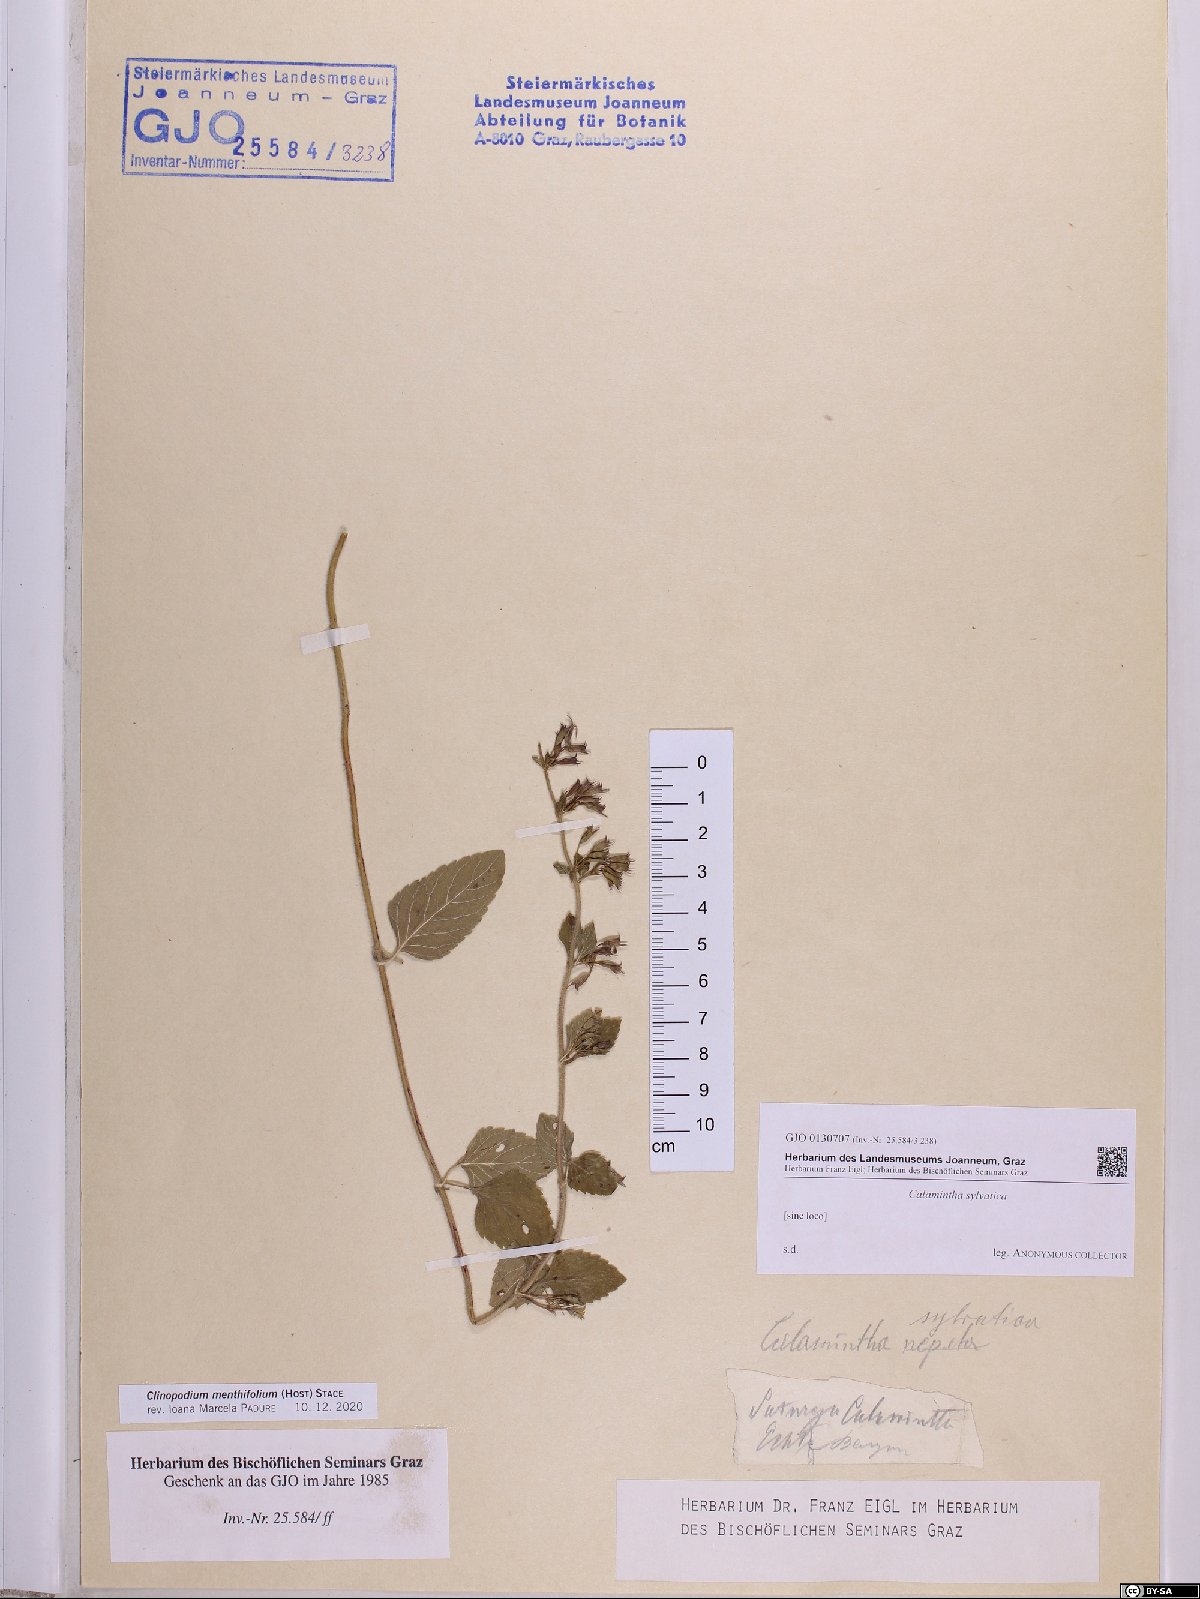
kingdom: Plantae
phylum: Tracheophyta
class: Magnoliopsida
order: Lamiales
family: Lamiaceae
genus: Clinopodium
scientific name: Clinopodium menthifolium
